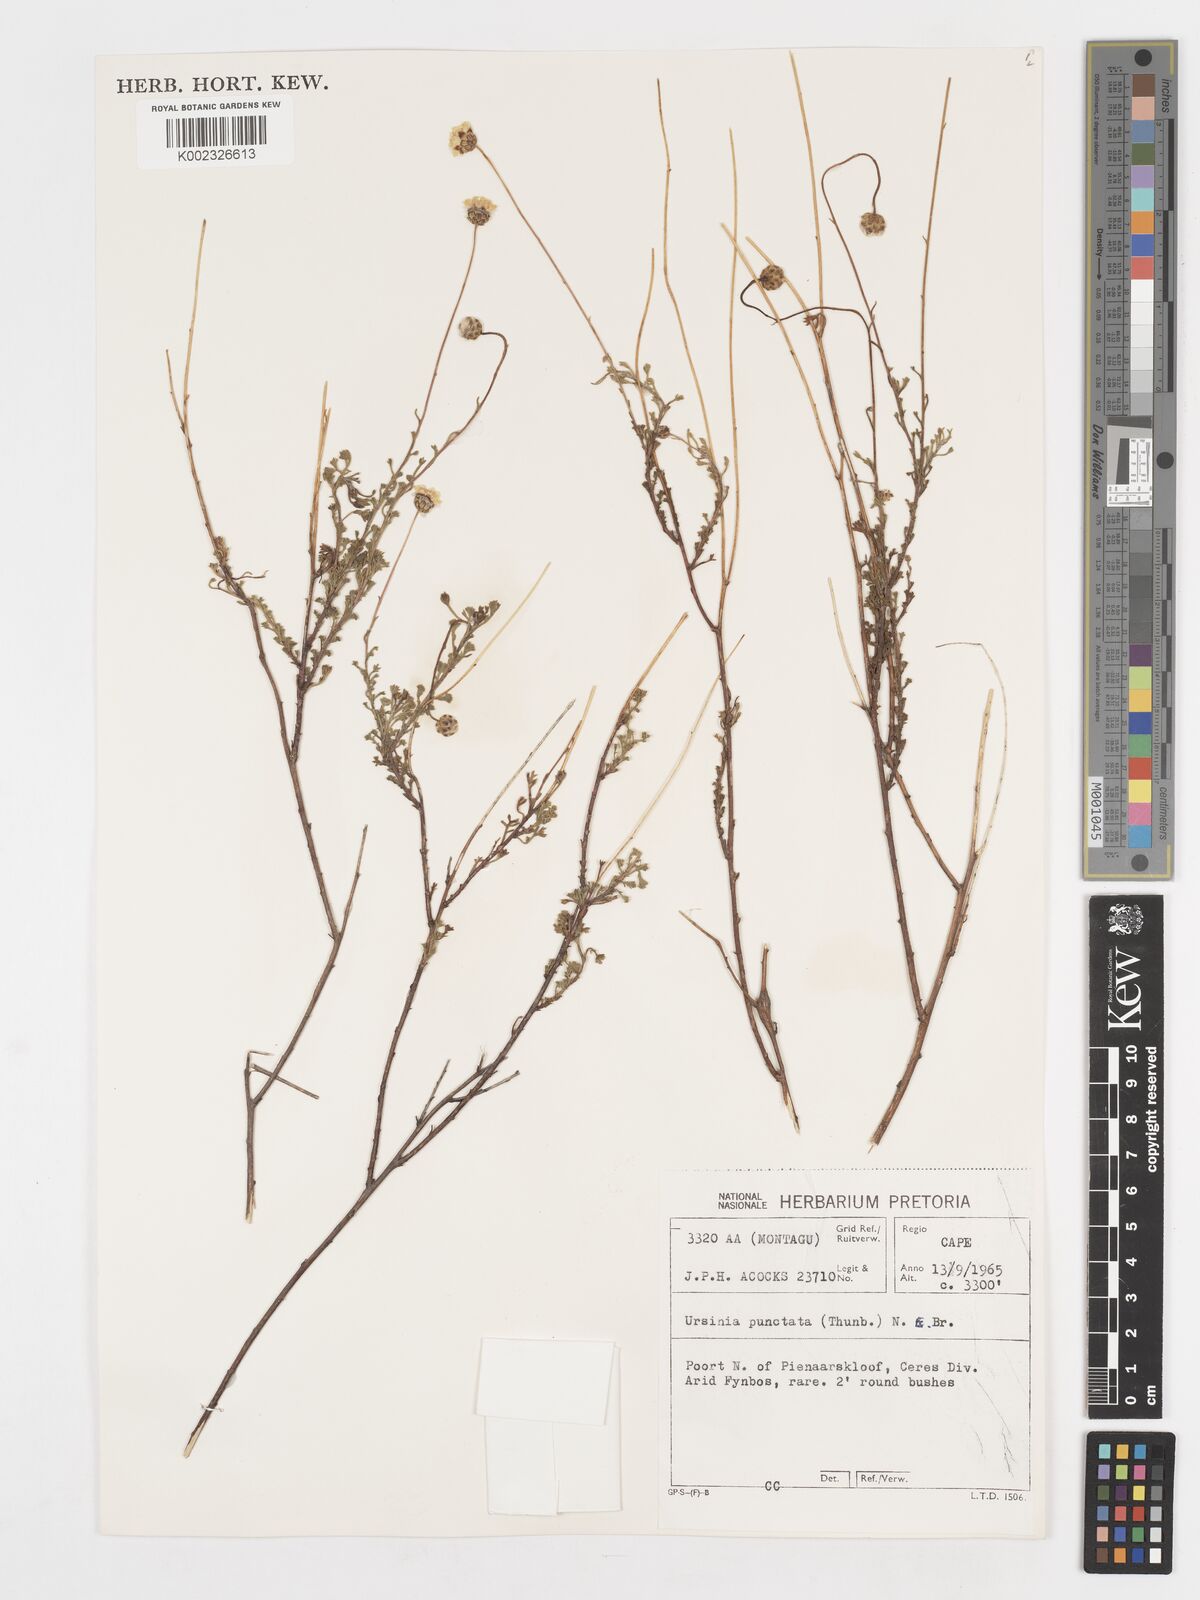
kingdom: Plantae
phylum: Tracheophyta
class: Magnoliopsida
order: Asterales
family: Asteraceae
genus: Ursinia
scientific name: Ursinia punctata
